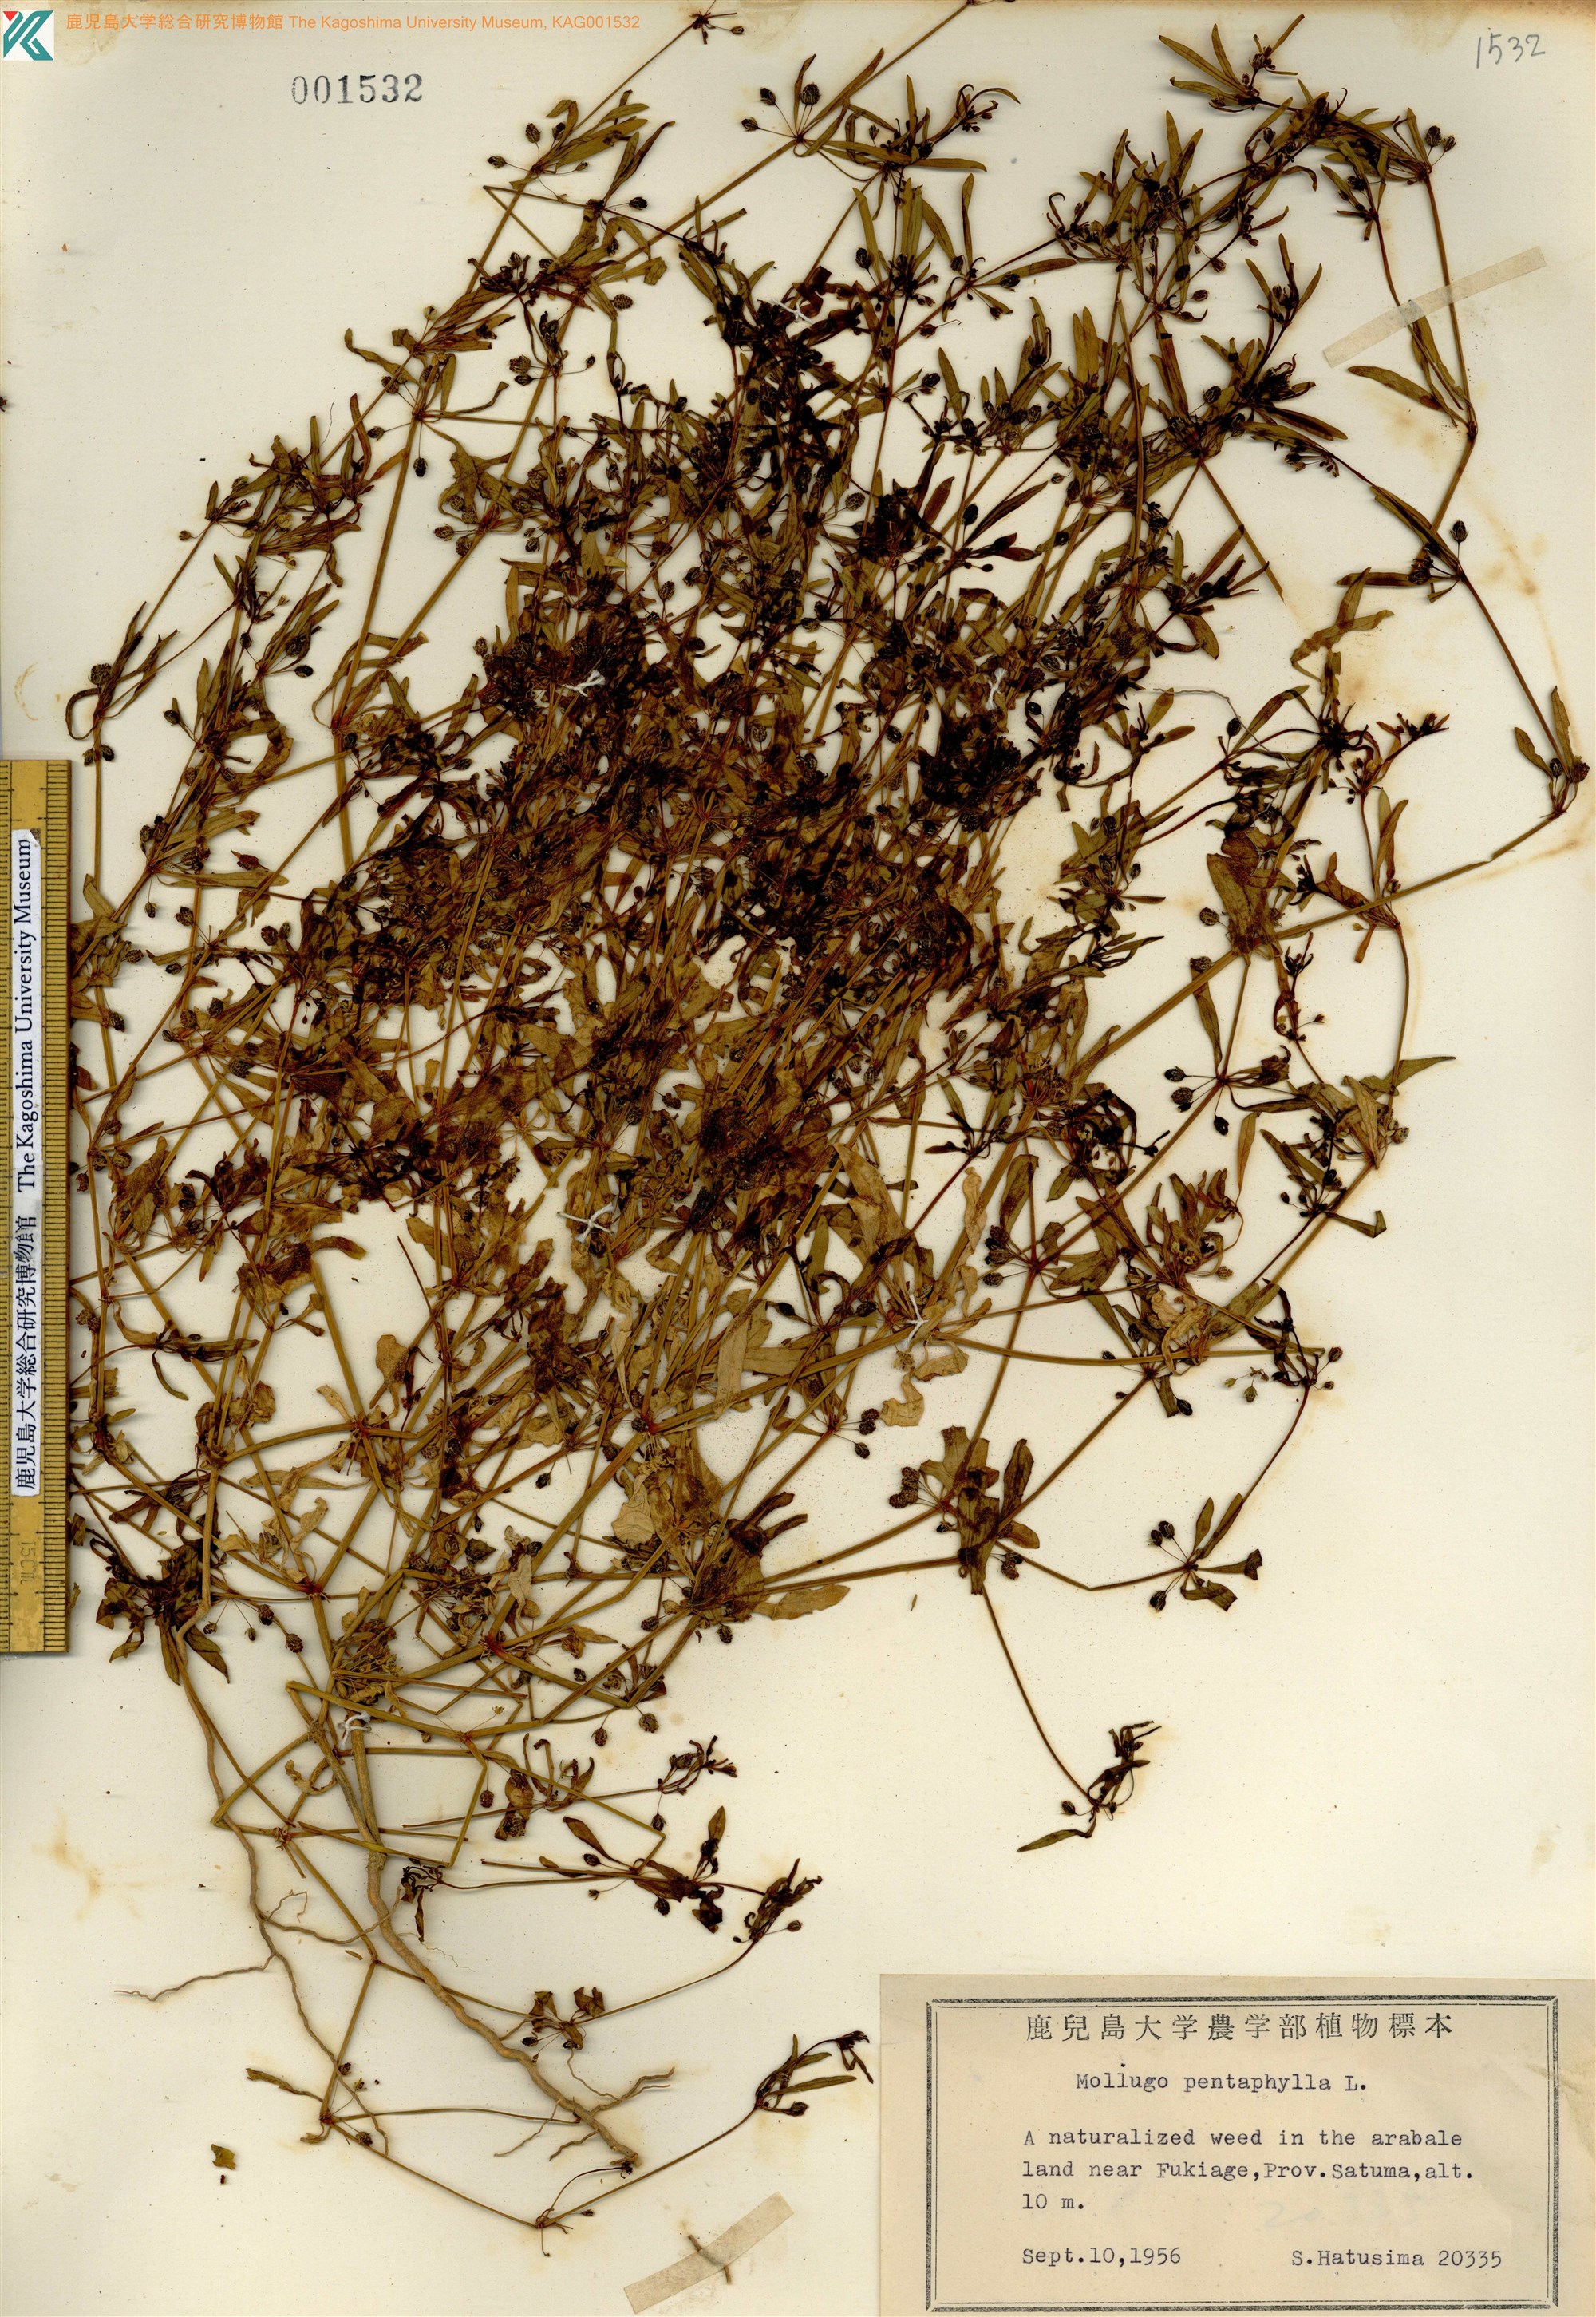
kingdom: Plantae
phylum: Tracheophyta
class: Magnoliopsida
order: Caryophyllales
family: Molluginaceae
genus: Trigastrotheca
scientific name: Trigastrotheca pentaphylla
